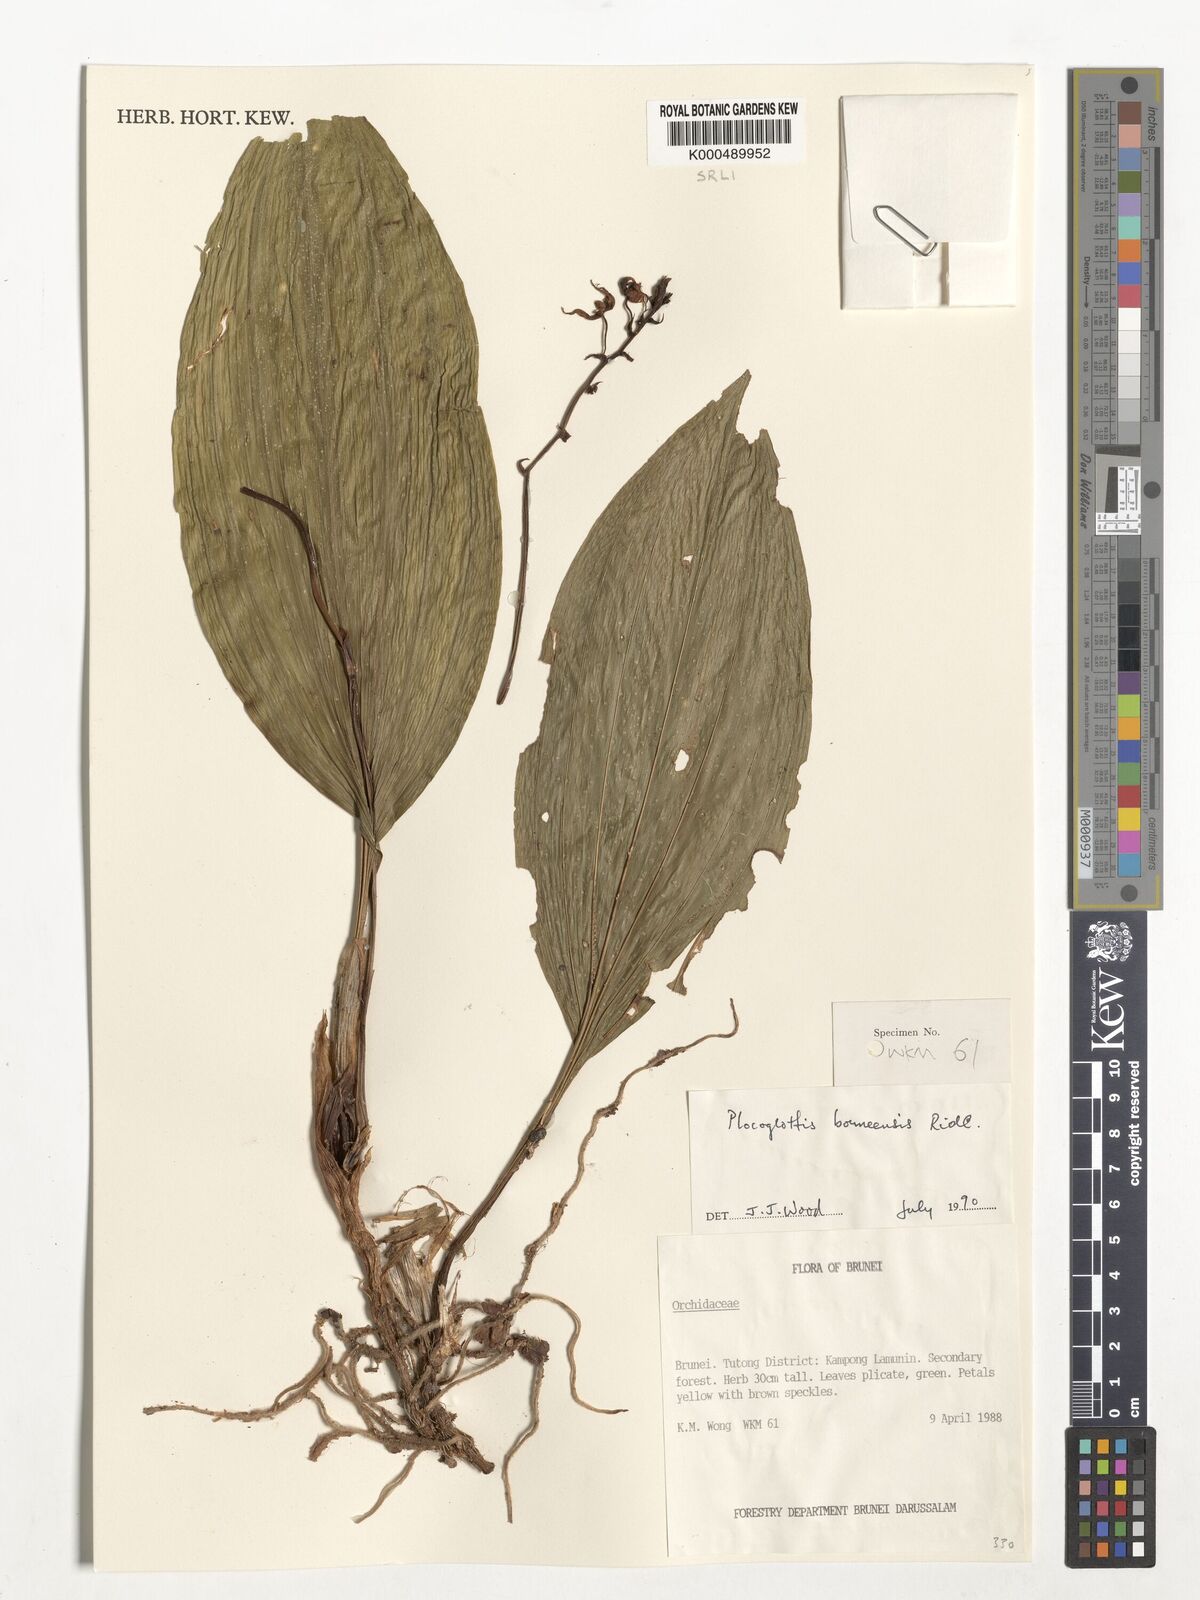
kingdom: Plantae
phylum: Tracheophyta
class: Liliopsida
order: Asparagales
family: Orchidaceae
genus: Plocoglottis
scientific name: Plocoglottis borneensis
